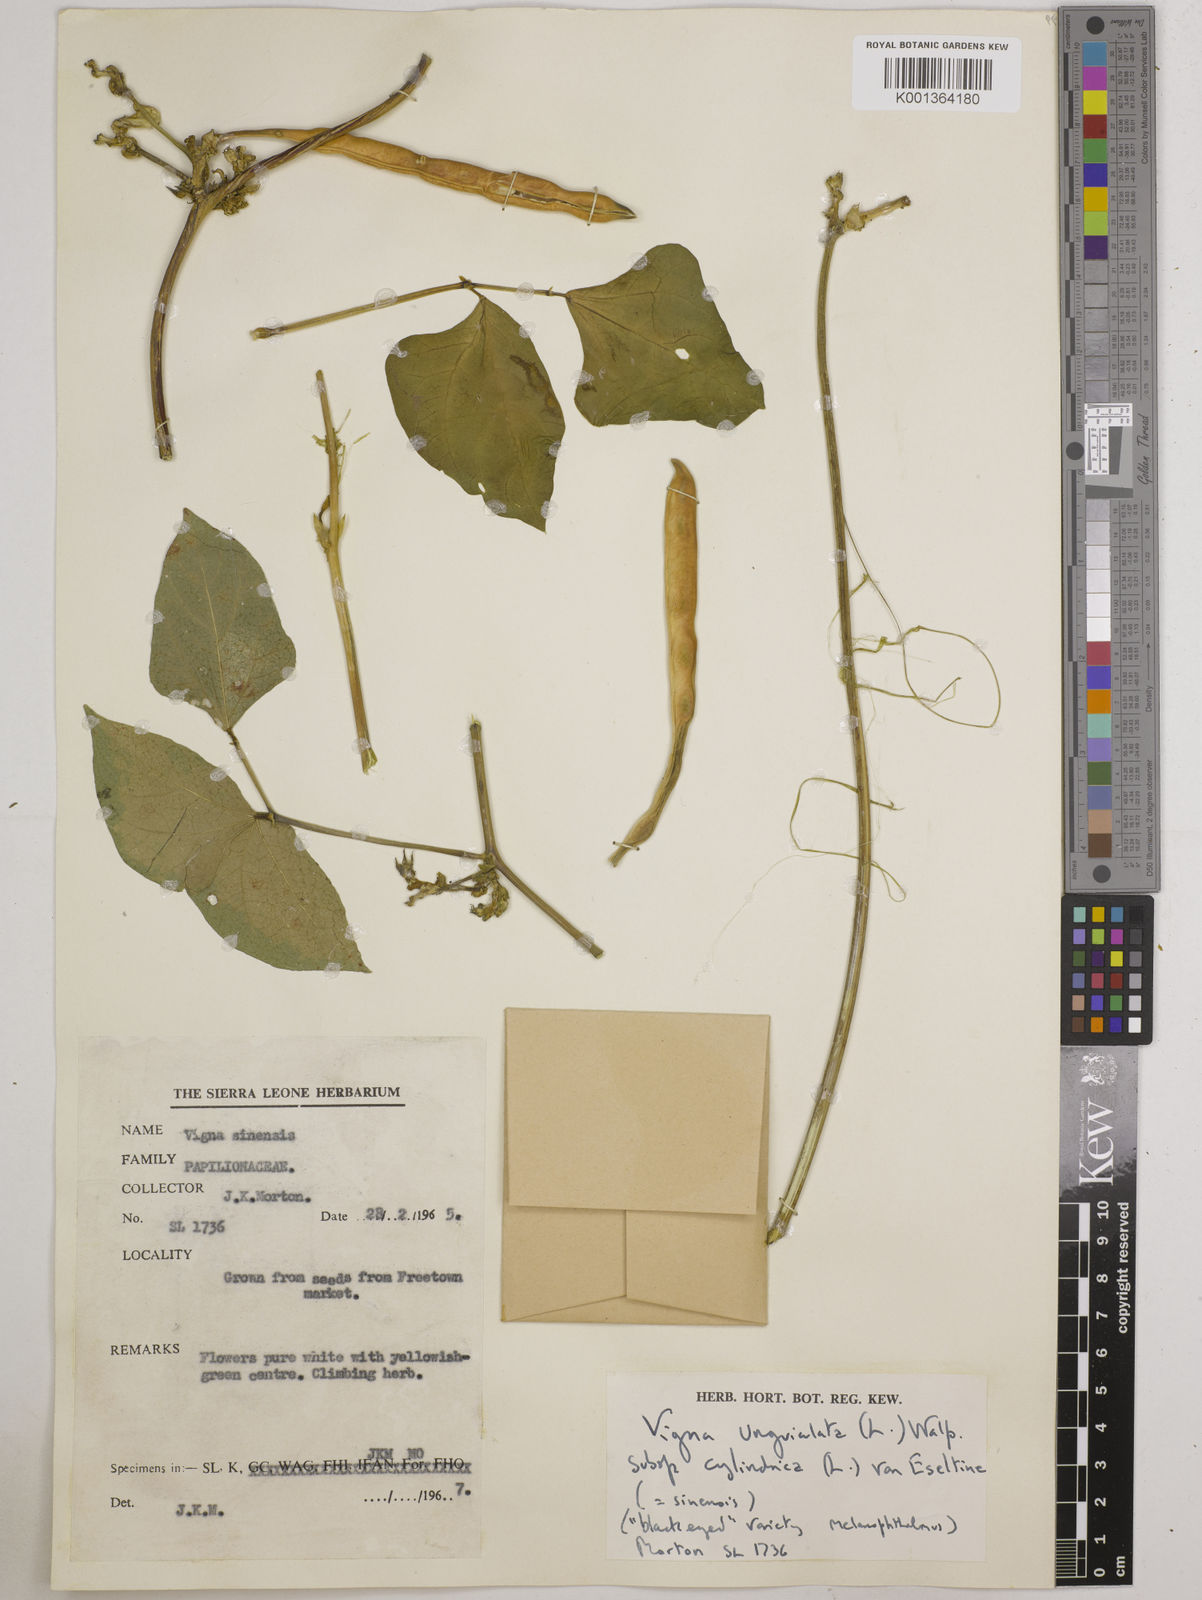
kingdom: Plantae
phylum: Tracheophyta
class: Magnoliopsida
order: Fabales
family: Fabaceae
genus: Vigna
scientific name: Vigna
